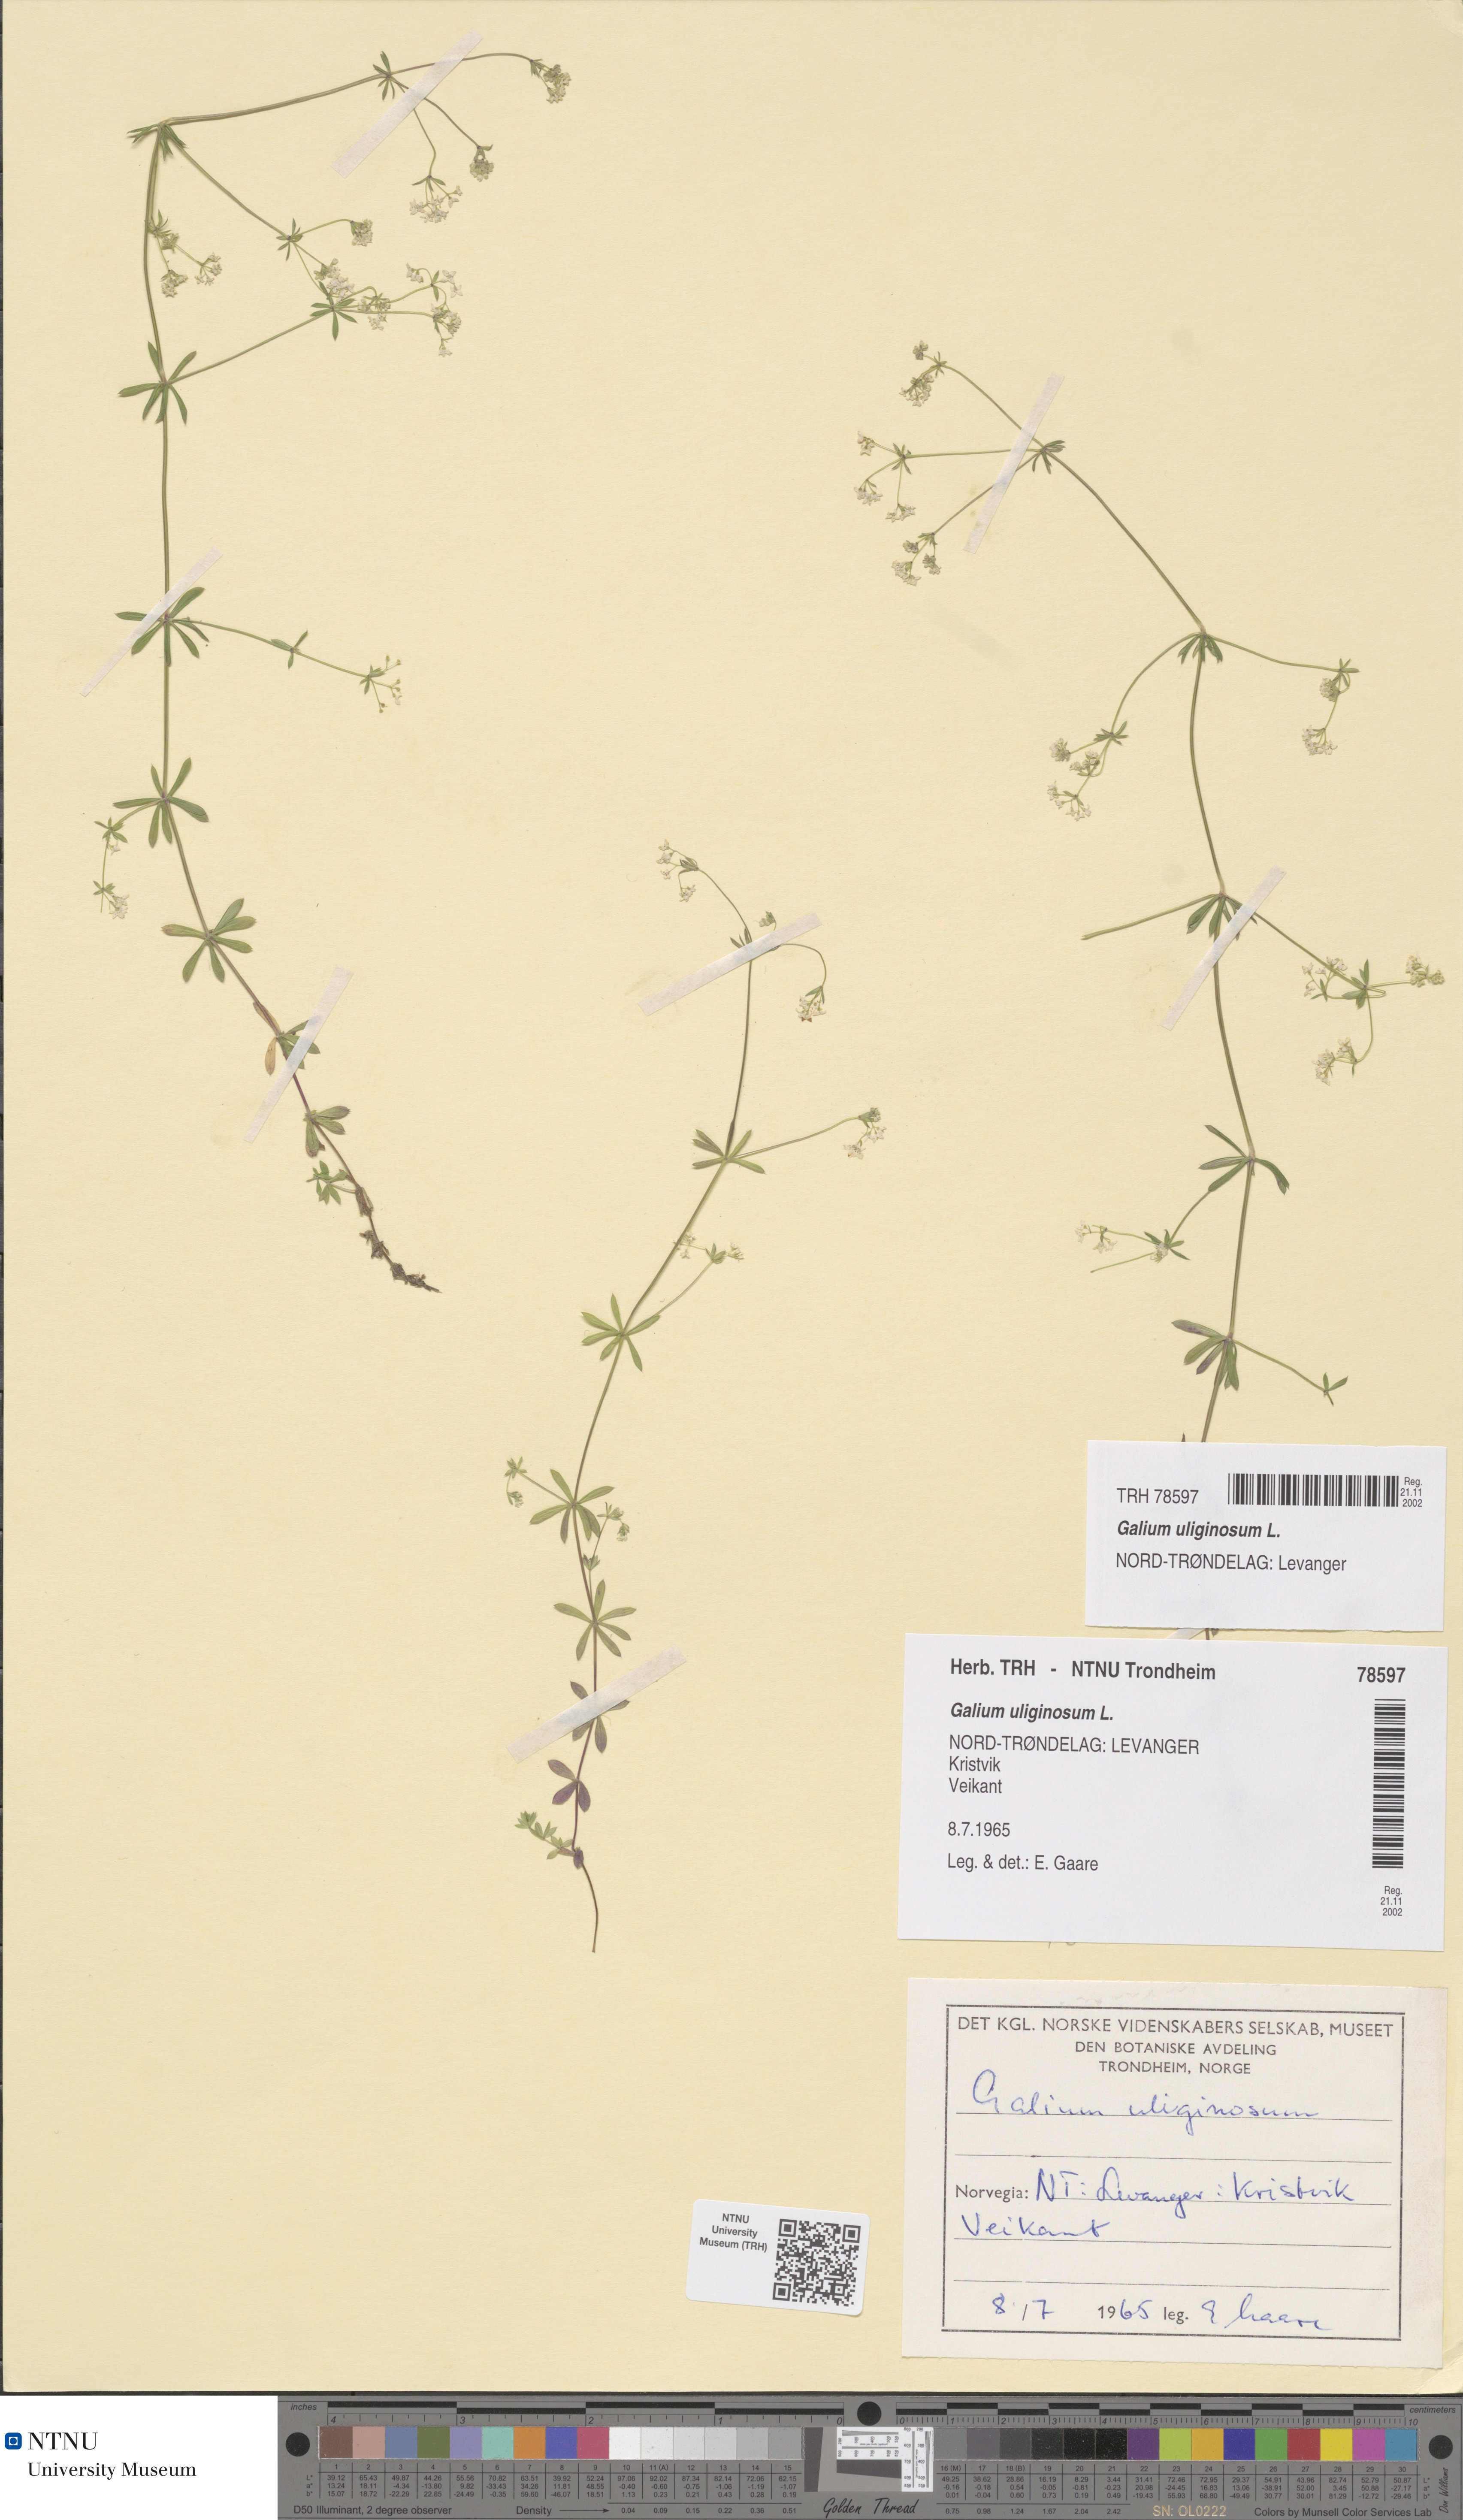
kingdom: Plantae
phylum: Tracheophyta
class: Magnoliopsida
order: Gentianales
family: Rubiaceae
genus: Galium
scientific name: Galium uliginosum
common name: Fen bedstraw
